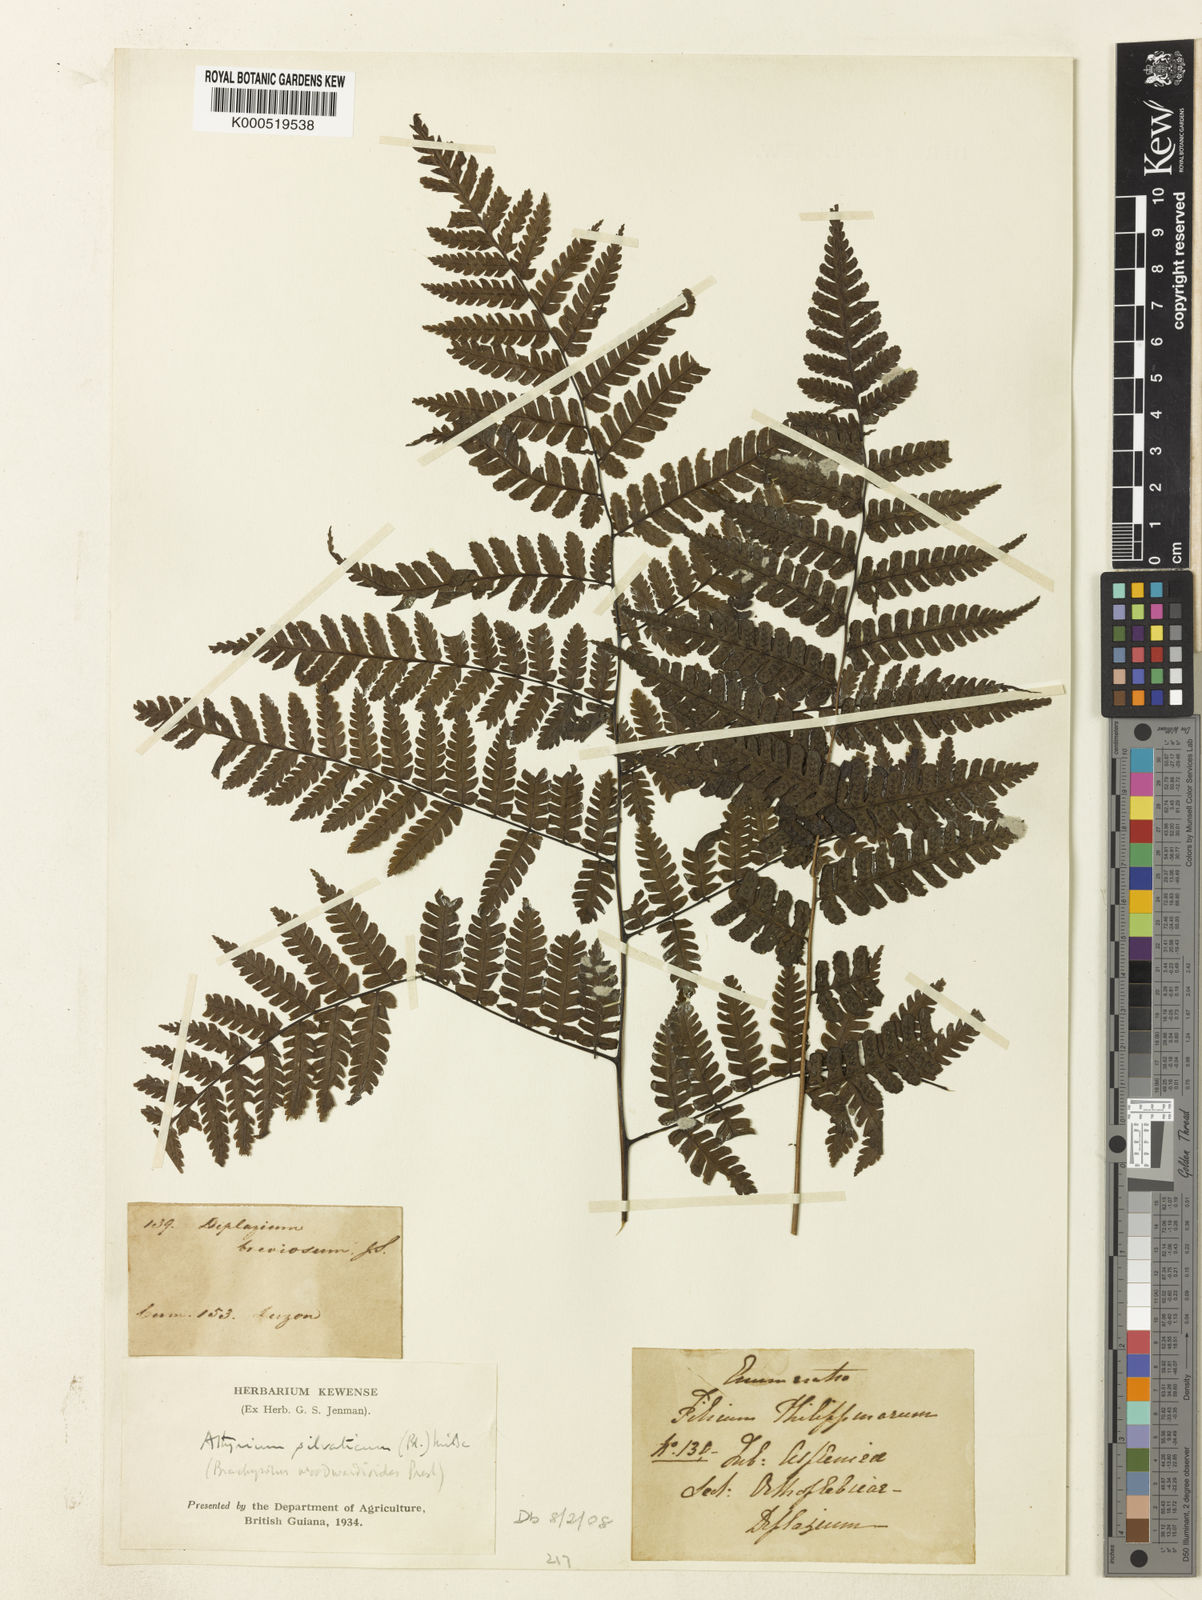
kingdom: Plantae
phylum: Tracheophyta
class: Polypodiopsida
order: Polypodiales
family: Athyriaceae
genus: Diplazium
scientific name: Diplazium woodwardioides
